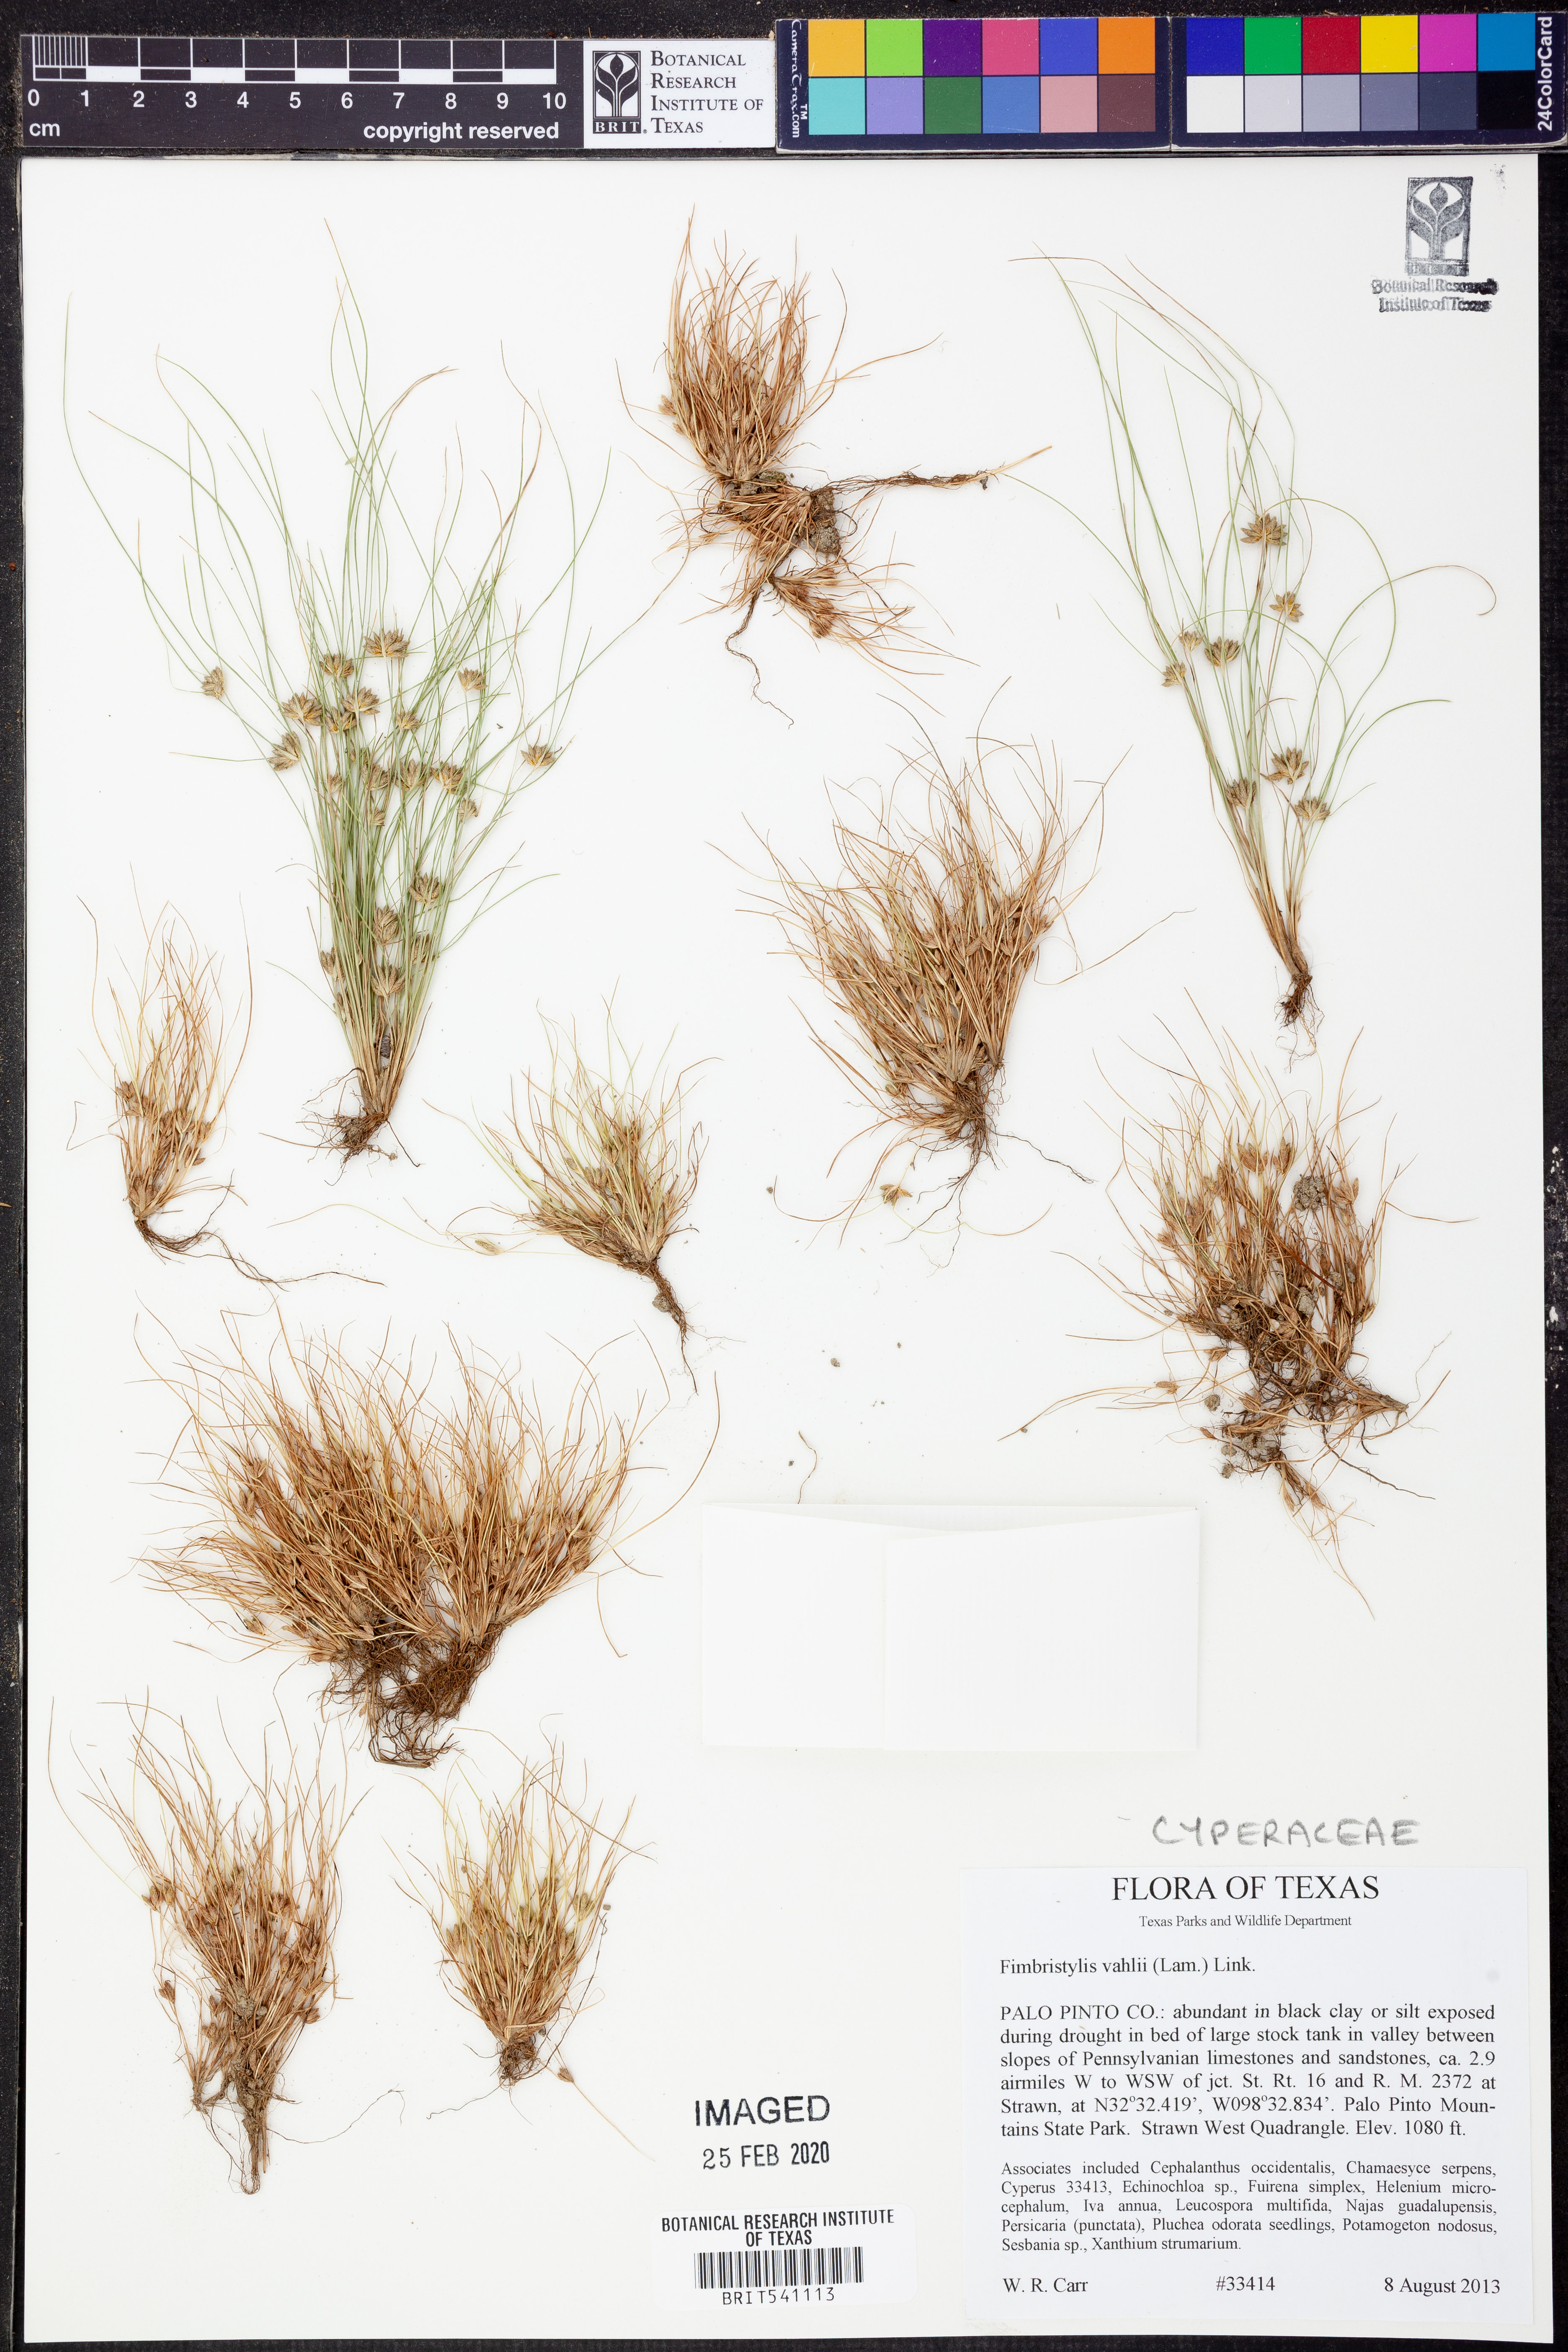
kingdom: Plantae
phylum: Tracheophyta
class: Liliopsida
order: Poales
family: Cyperaceae
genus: Fimbristylis
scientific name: Fimbristylis vahlii
